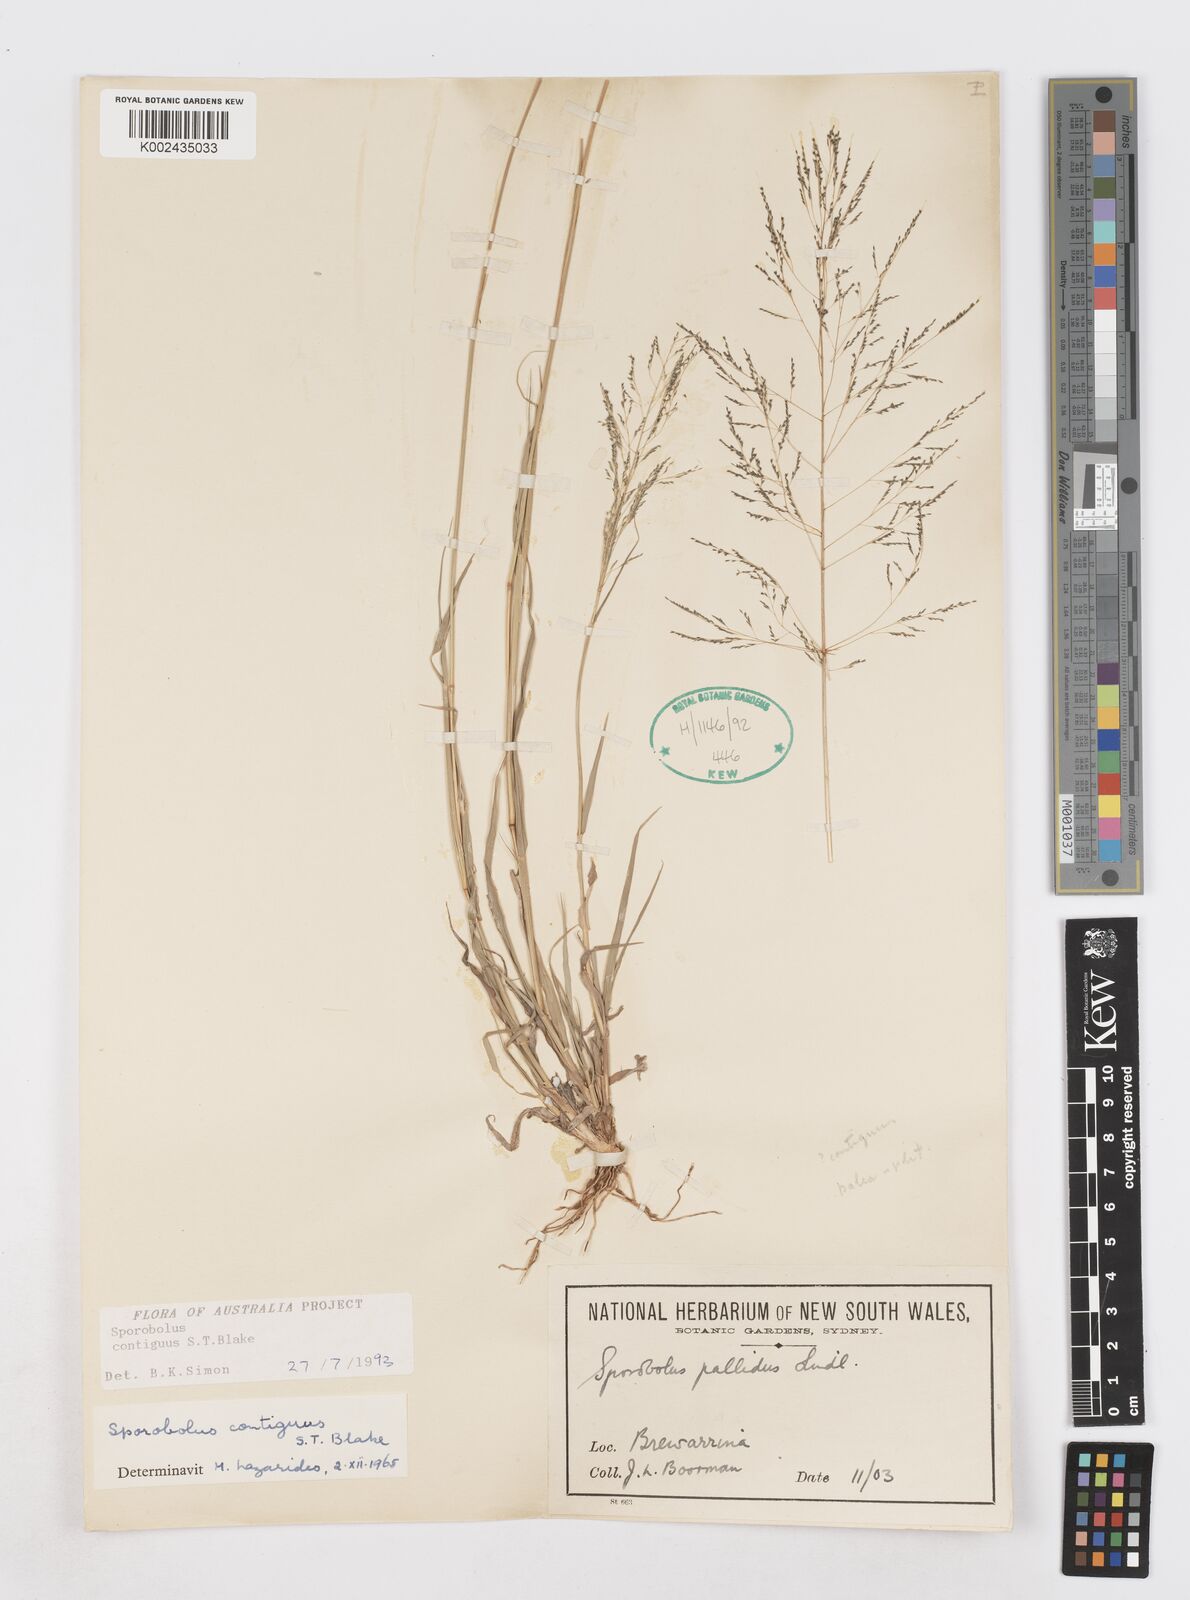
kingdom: Plantae
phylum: Tracheophyta
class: Liliopsida
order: Poales
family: Poaceae
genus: Sporobolus
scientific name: Sporobolus contiguus
